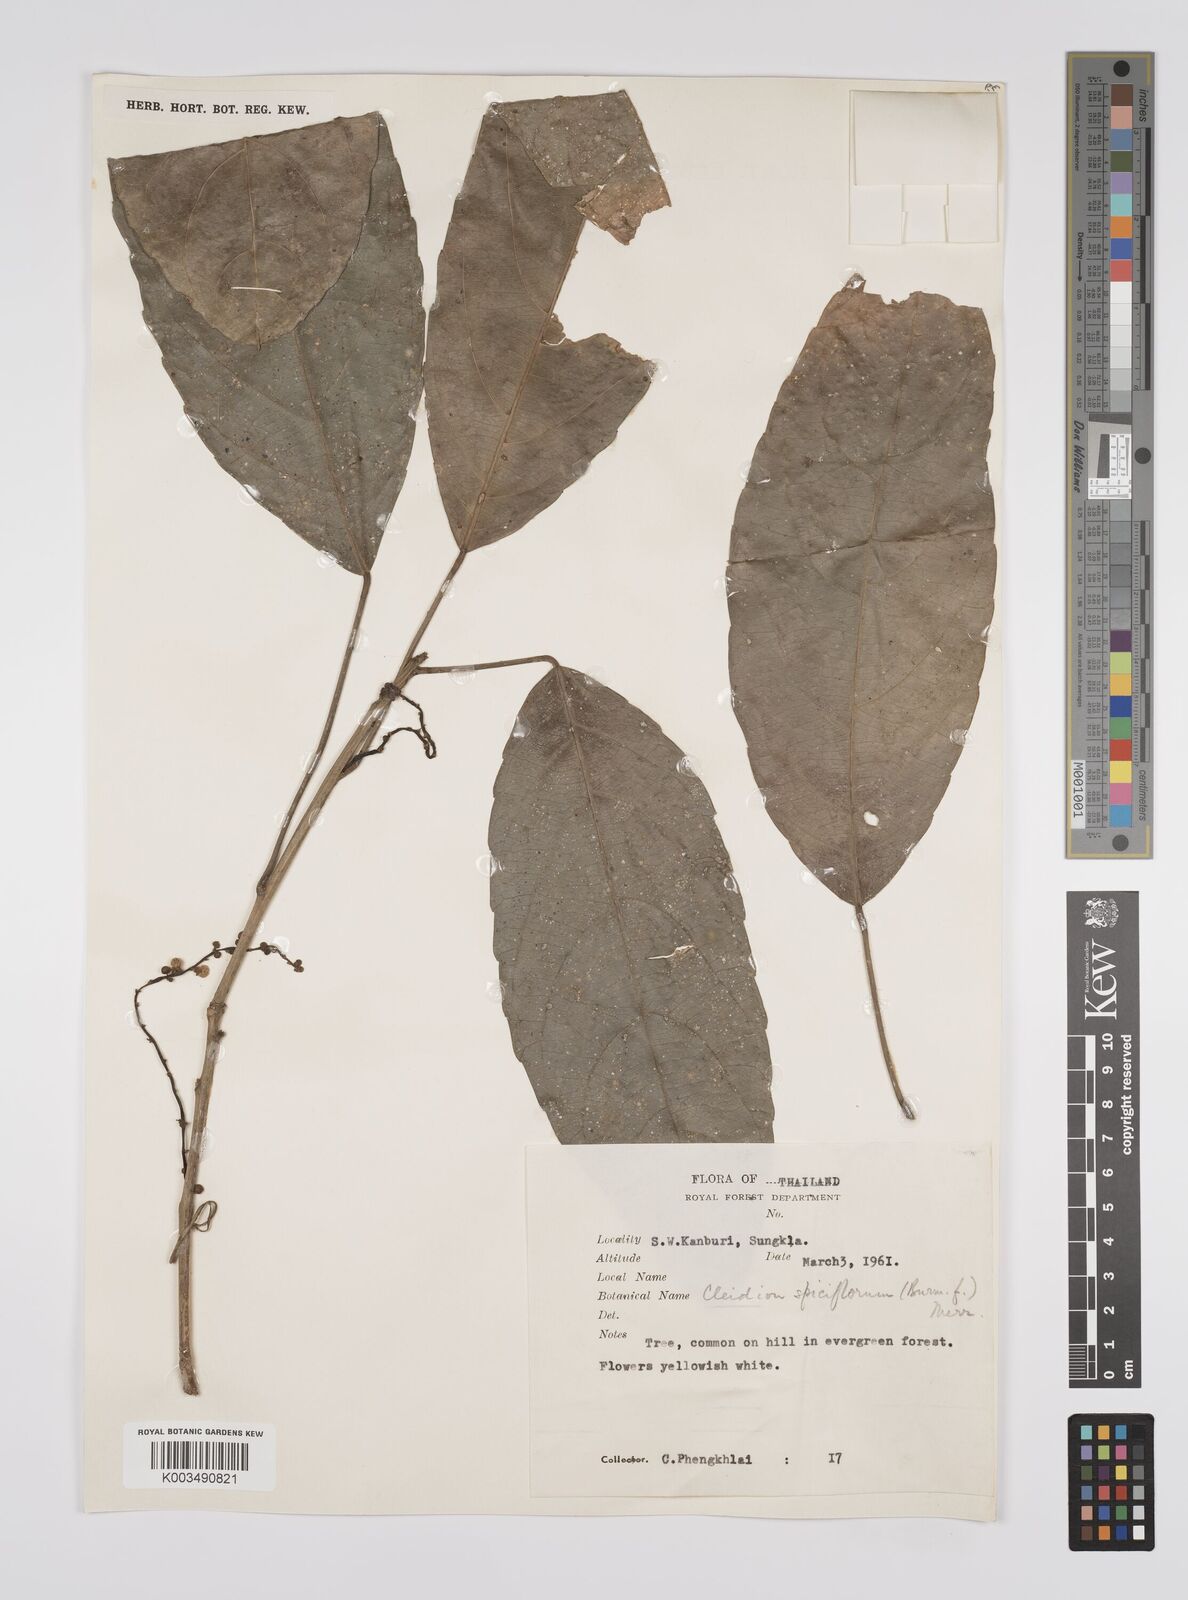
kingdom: Plantae
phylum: Tracheophyta
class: Magnoliopsida
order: Malpighiales
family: Euphorbiaceae
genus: Acalypha
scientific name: Acalypha spiciflora
